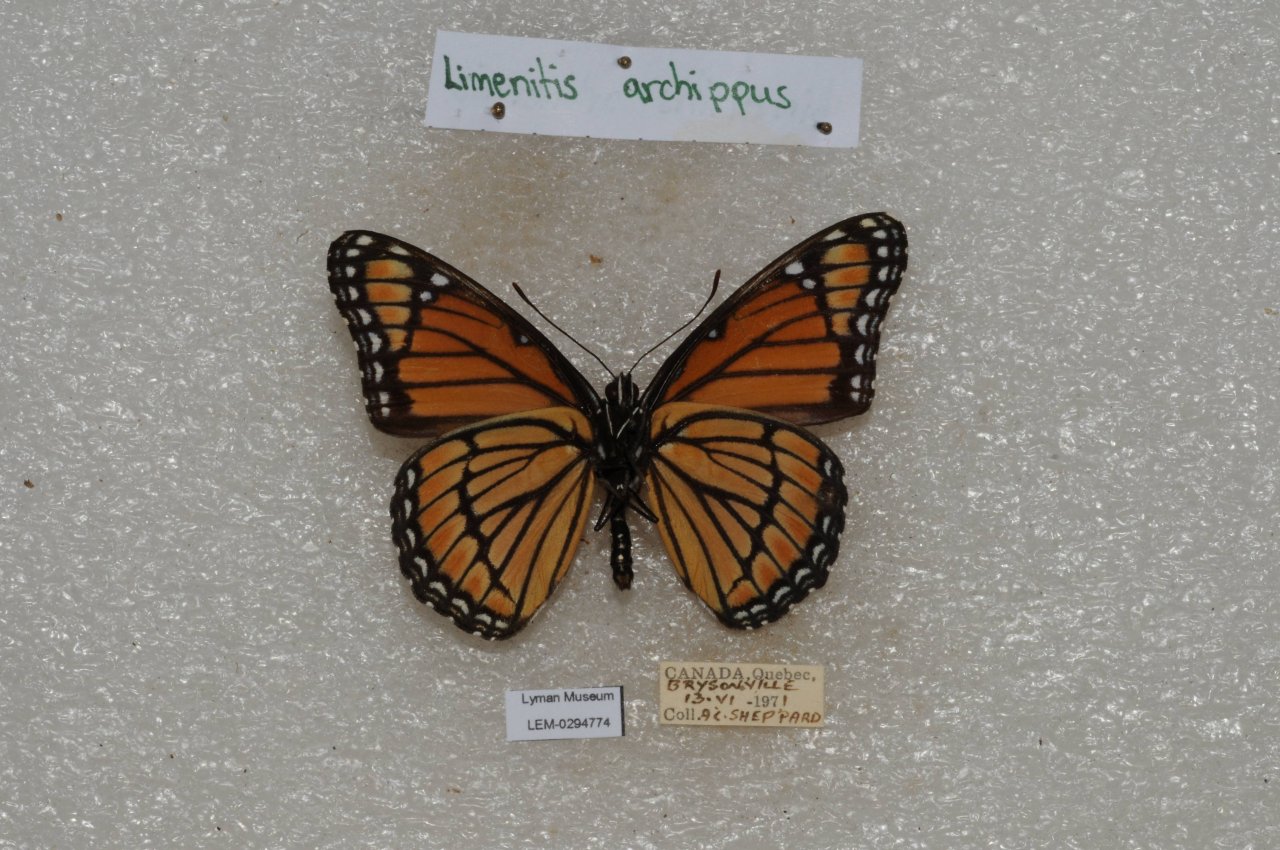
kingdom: Animalia
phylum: Arthropoda
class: Insecta
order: Lepidoptera
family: Nymphalidae
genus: Limenitis
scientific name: Limenitis archippus
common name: Viceroy
